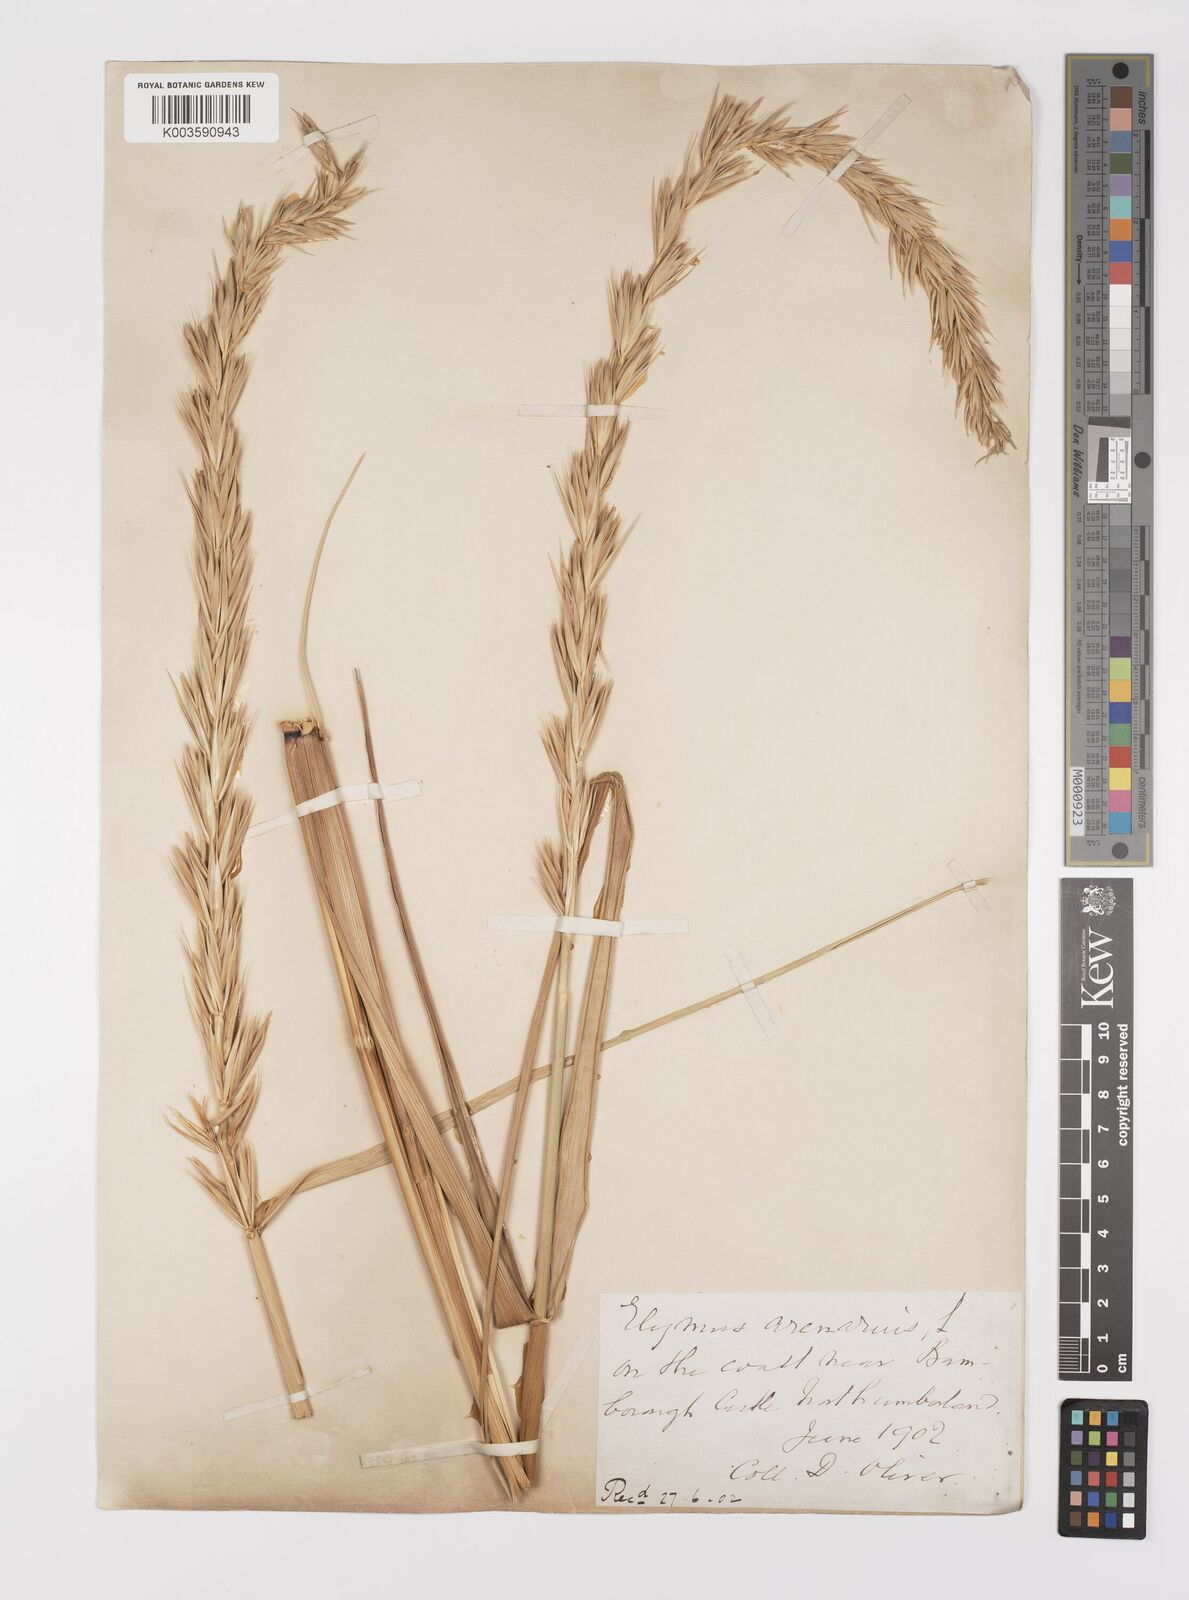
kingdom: Plantae
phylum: Tracheophyta
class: Liliopsida
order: Poales
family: Poaceae
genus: Leymus
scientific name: Leymus arenarius
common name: Lyme-grass
